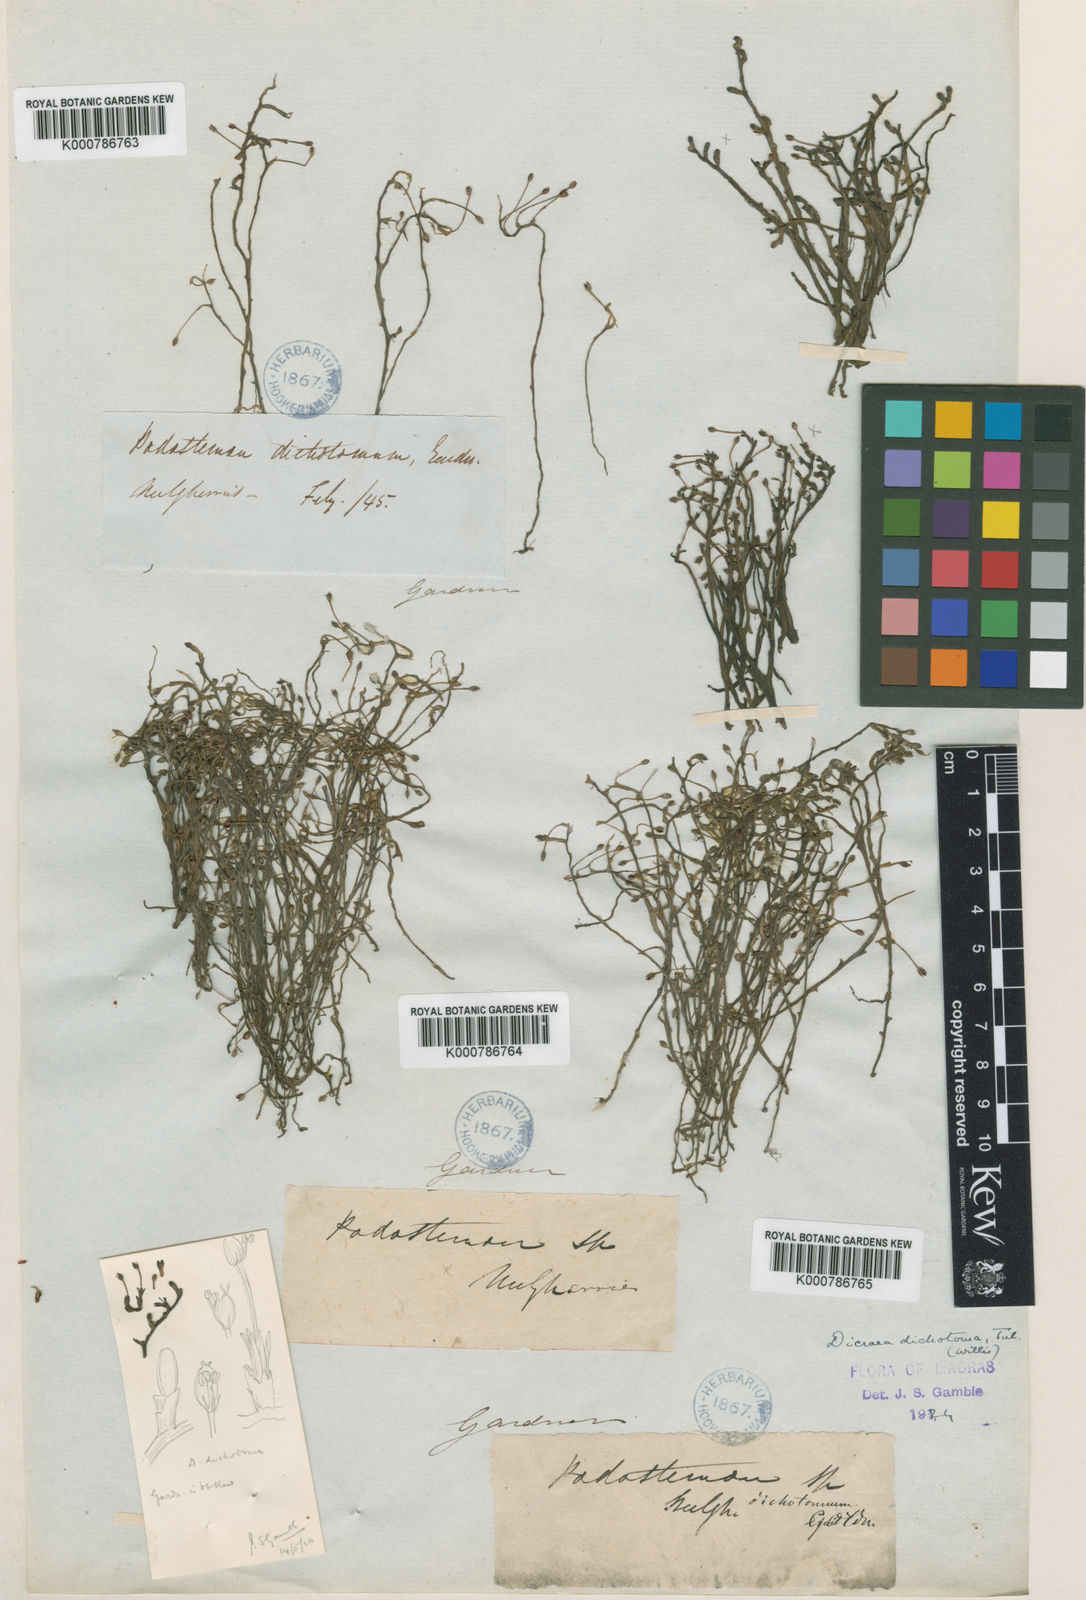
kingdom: Plantae
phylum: Tracheophyta
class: Magnoliopsida
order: Malpighiales
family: Podostemaceae
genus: Polypleurum
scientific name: Polypleurum dichotomum
